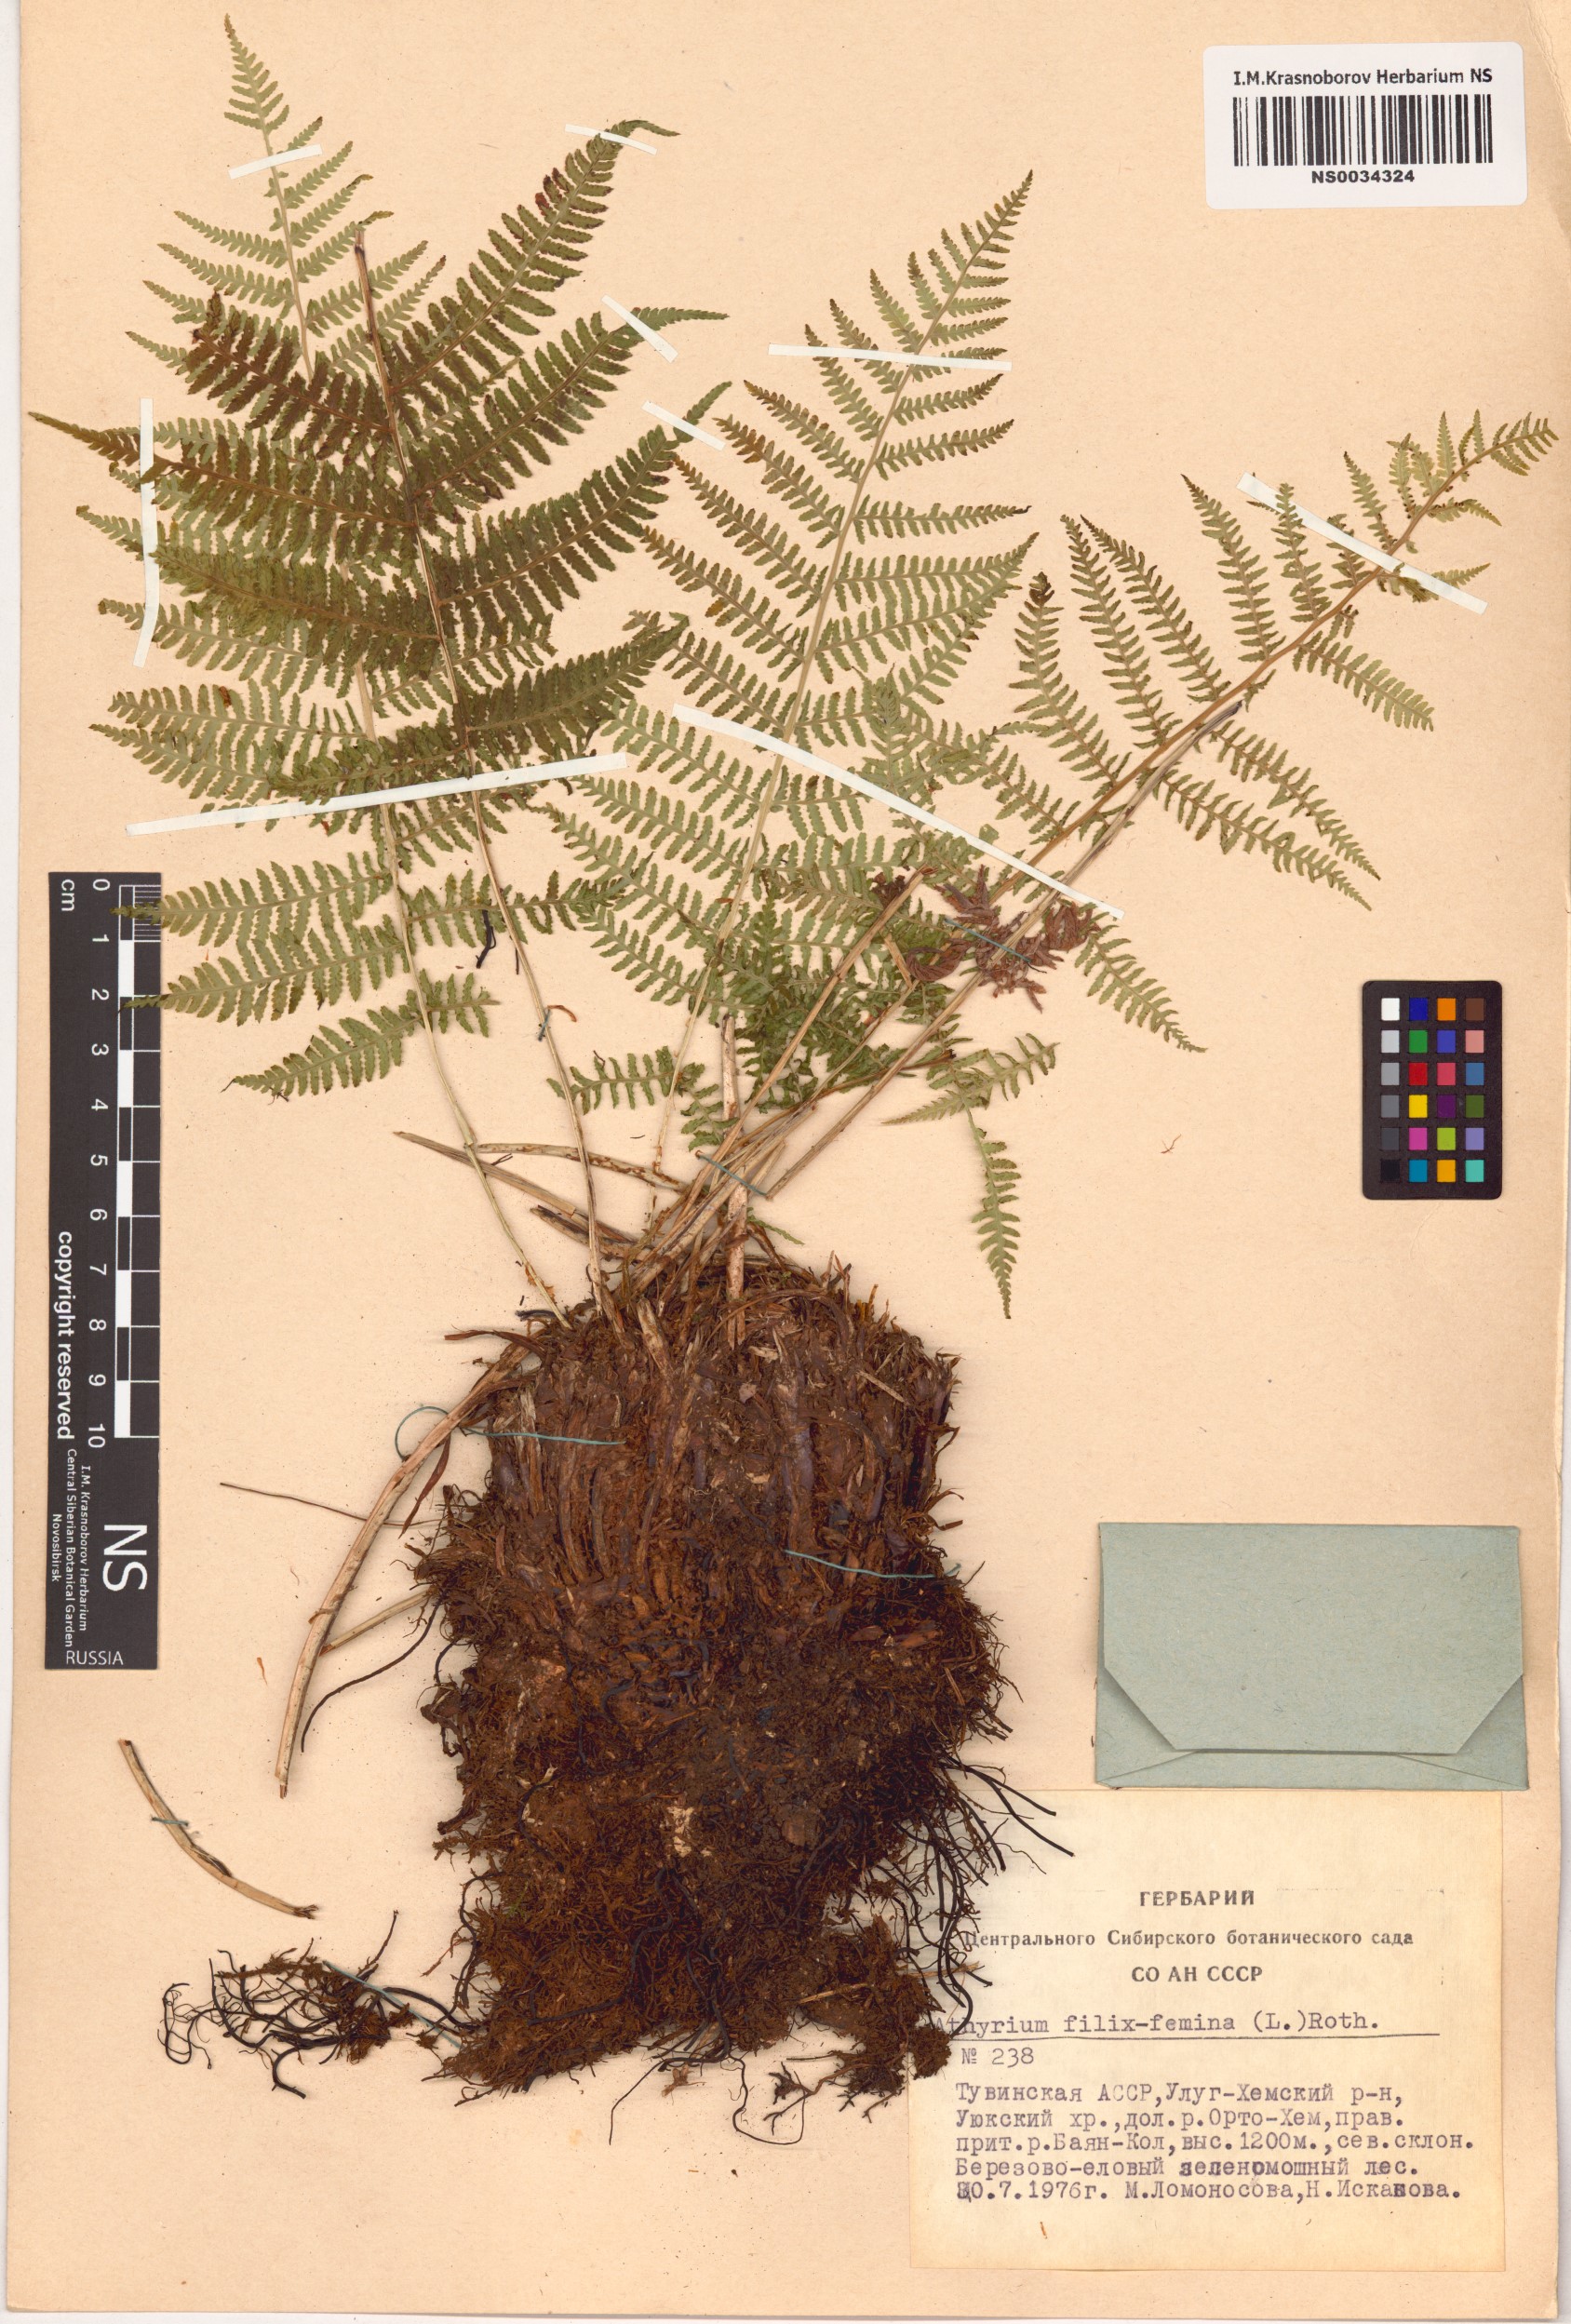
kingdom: Plantae
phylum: Tracheophyta
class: Polypodiopsida
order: Polypodiales
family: Athyriaceae
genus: Athyrium
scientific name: Athyrium filix-femina
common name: Lady fern
